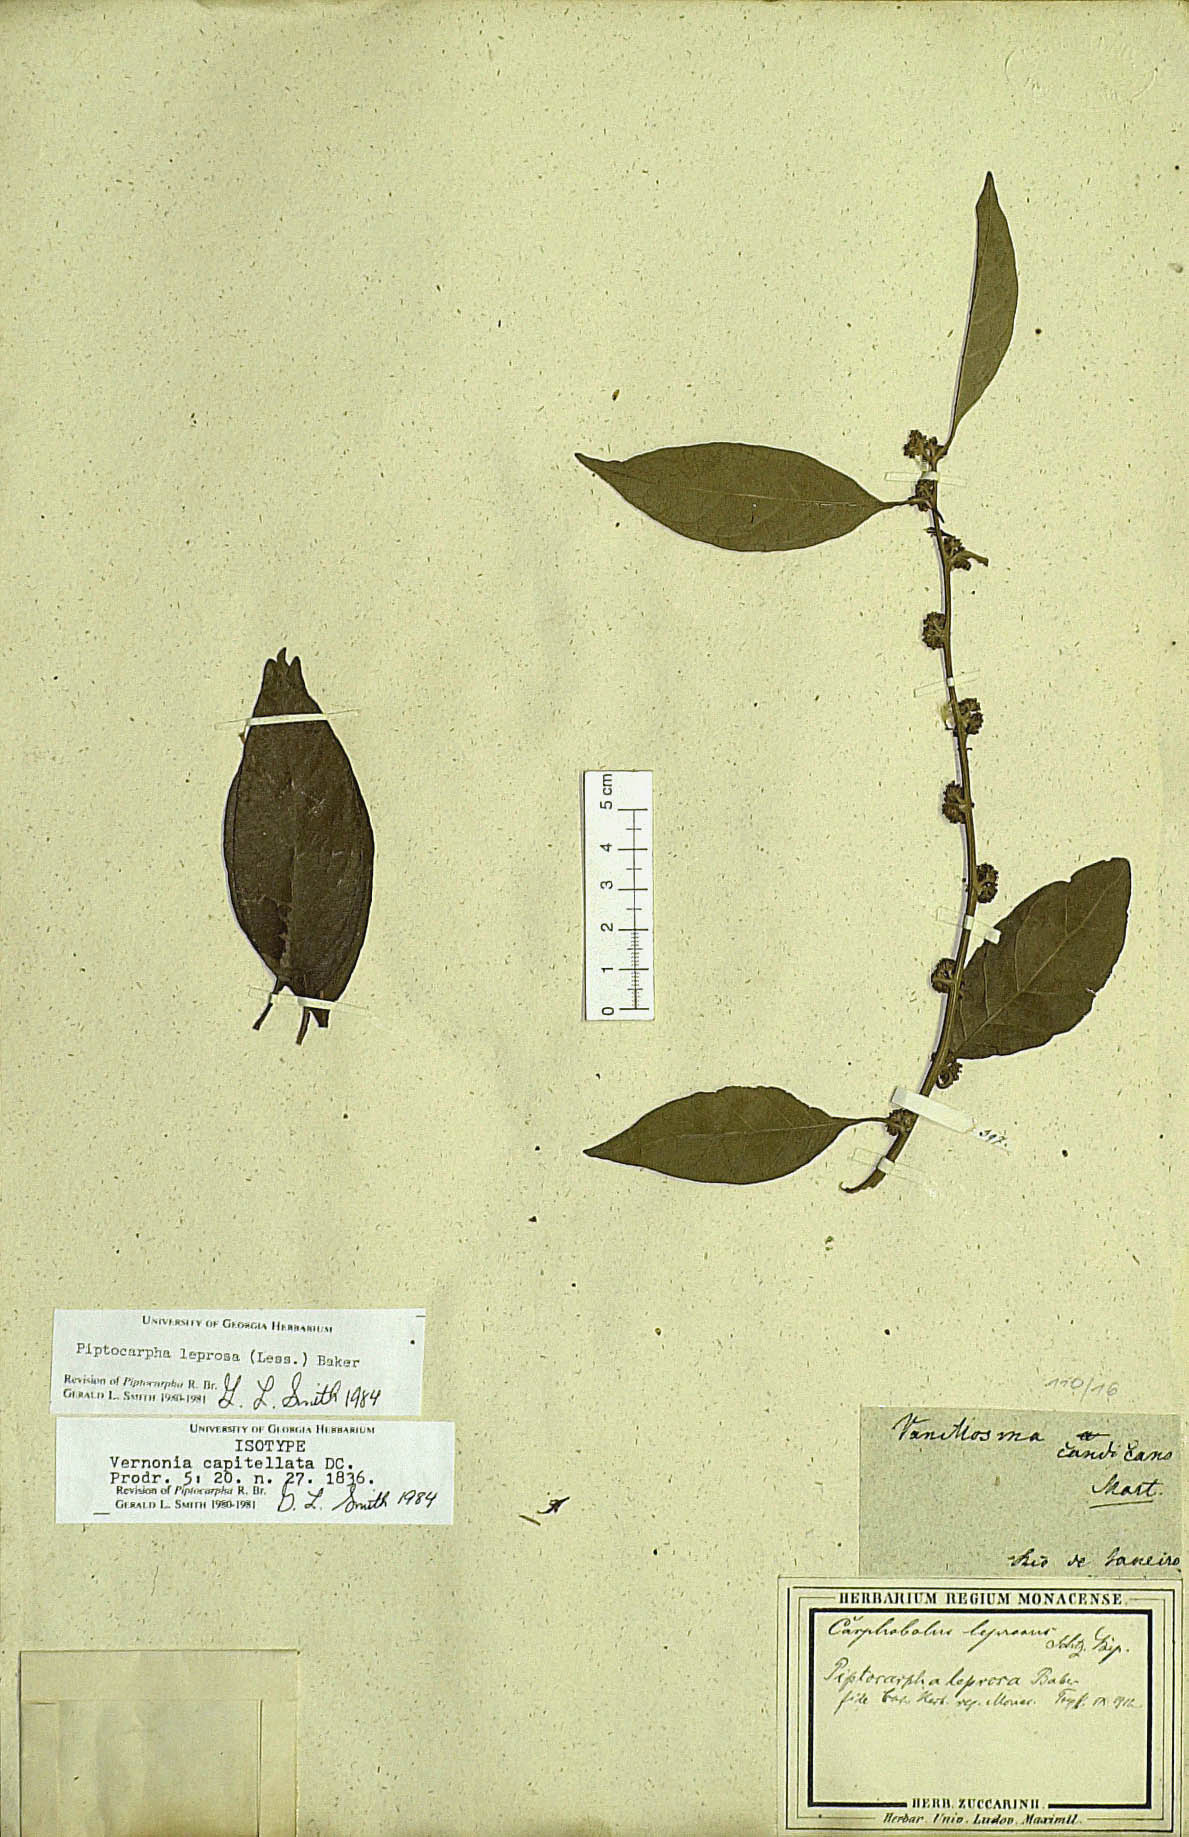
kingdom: Plantae
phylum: Tracheophyta
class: Magnoliopsida
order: Asterales
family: Asteraceae
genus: Piptocarpha
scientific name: Piptocarpha leprosa
